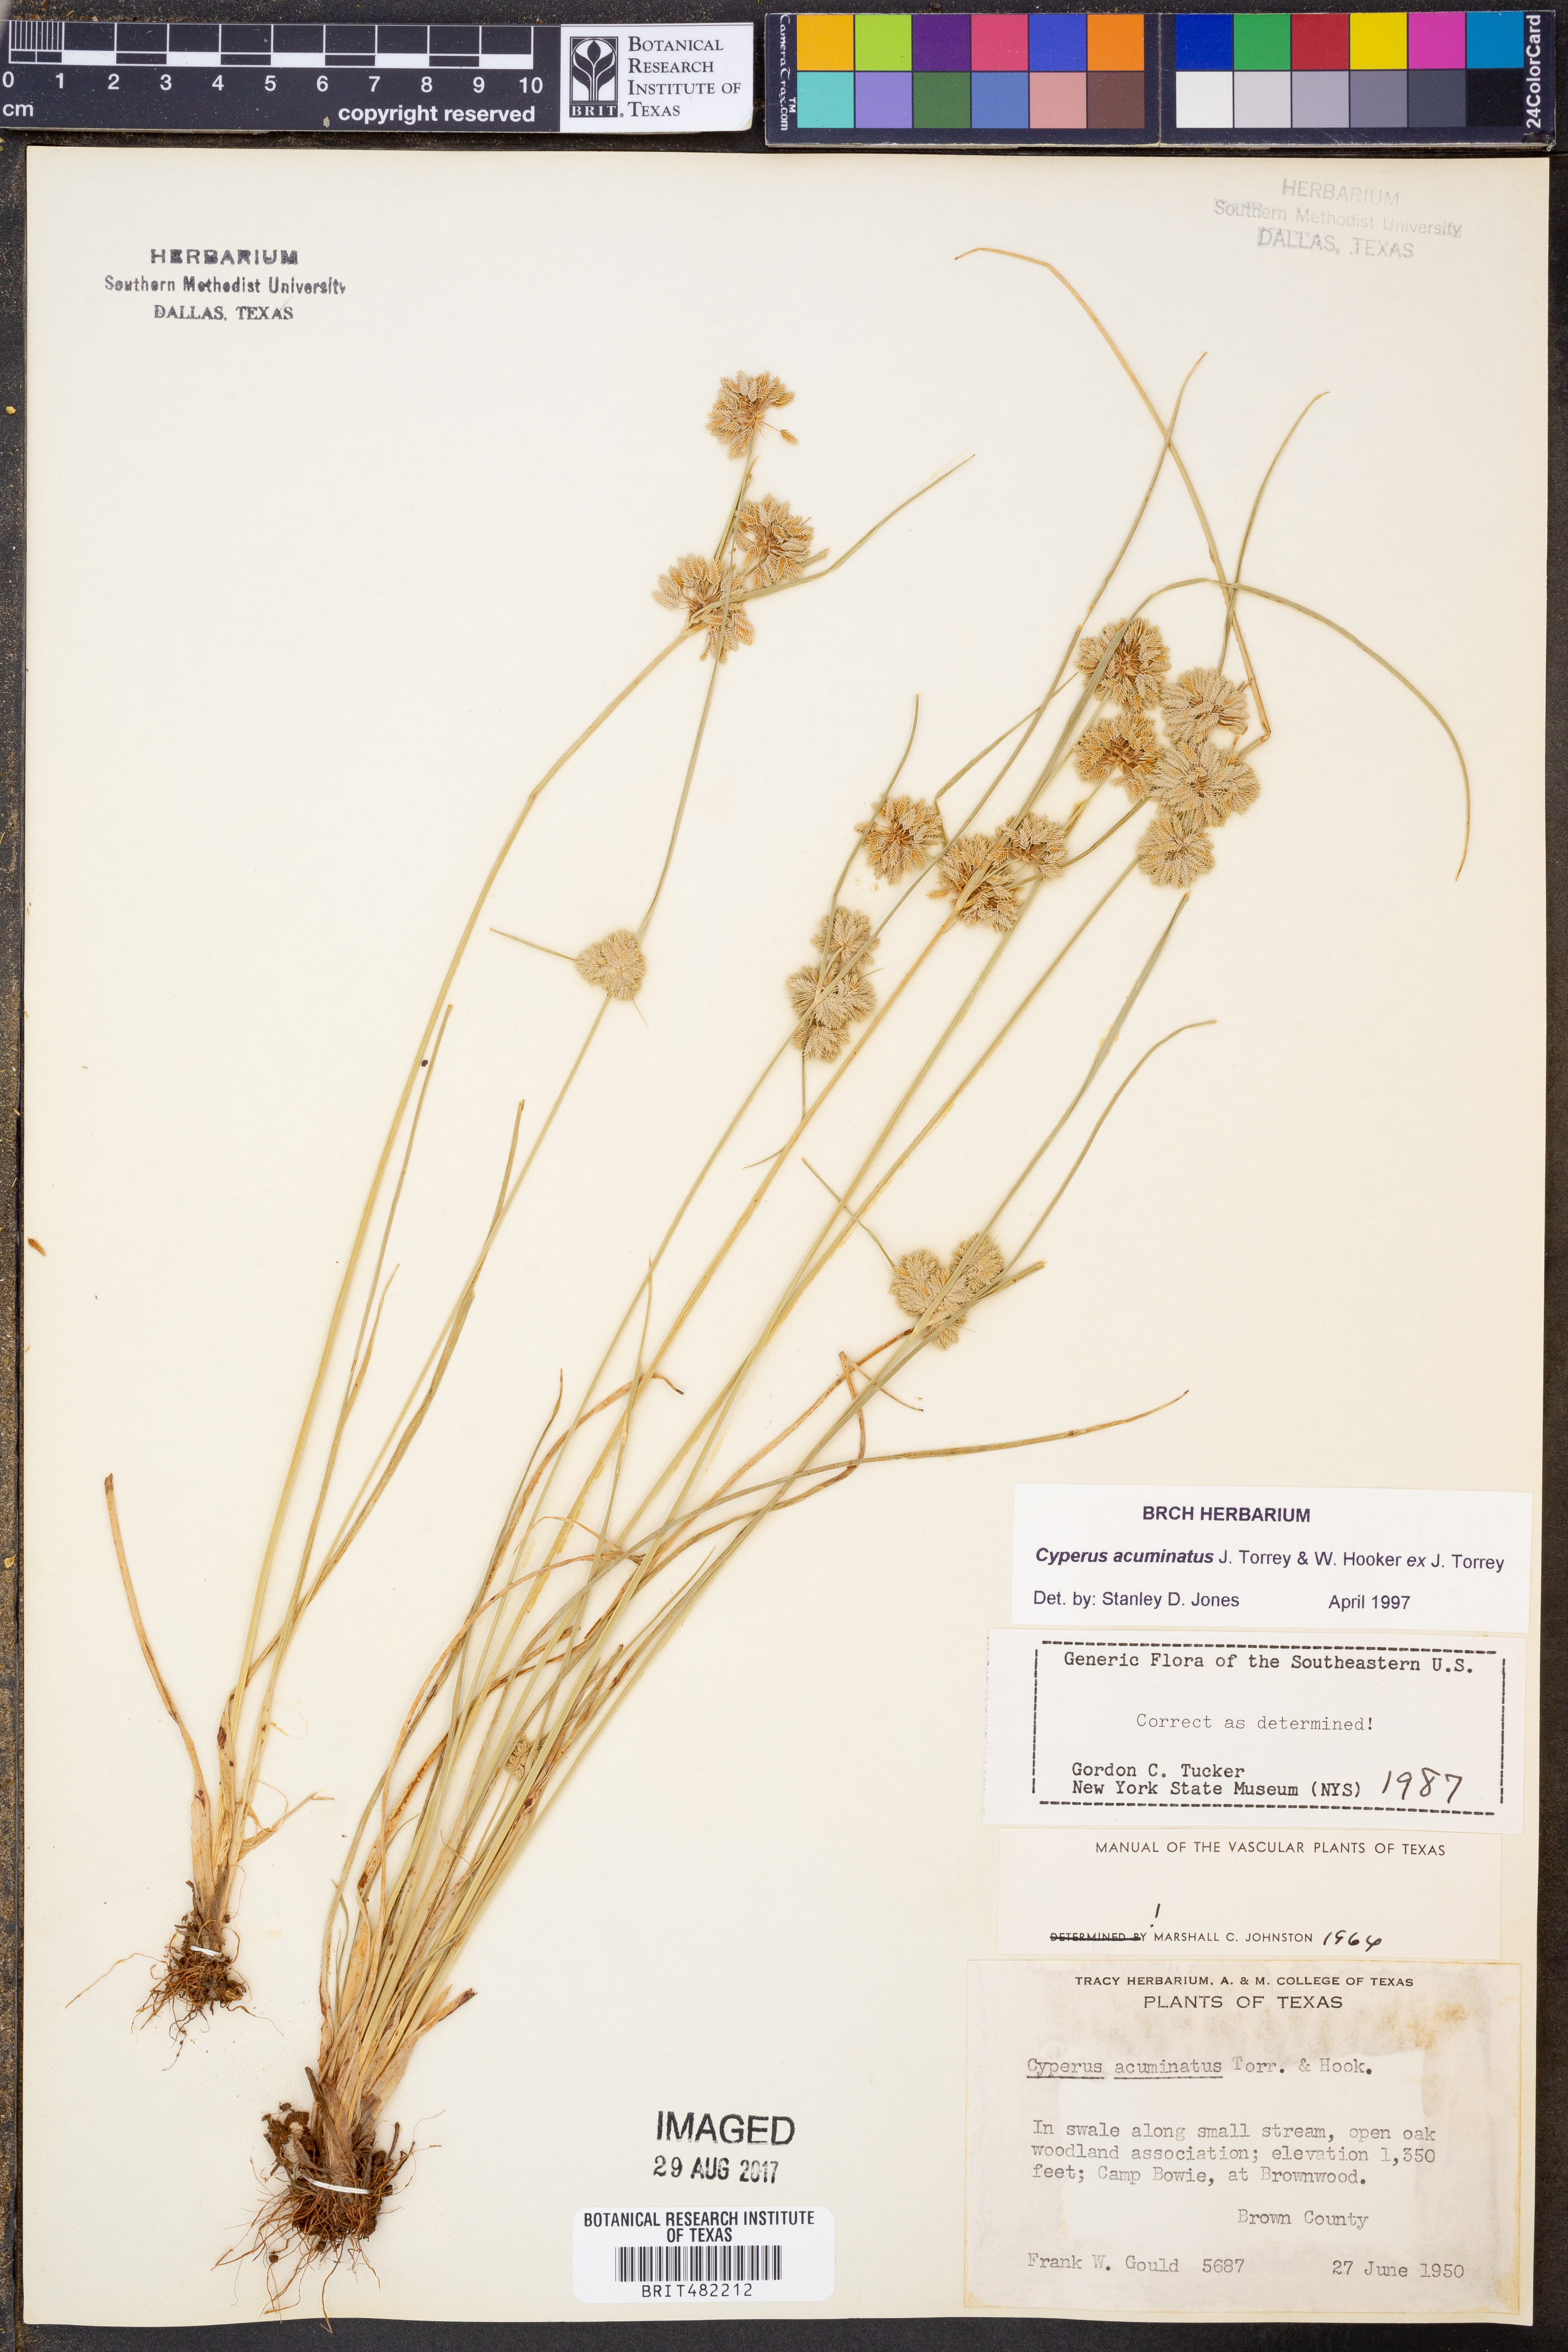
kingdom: Plantae
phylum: Tracheophyta
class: Liliopsida
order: Poales
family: Cyperaceae
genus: Cyperus
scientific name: Cyperus acuminatus
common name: Short-pointed cyperus
